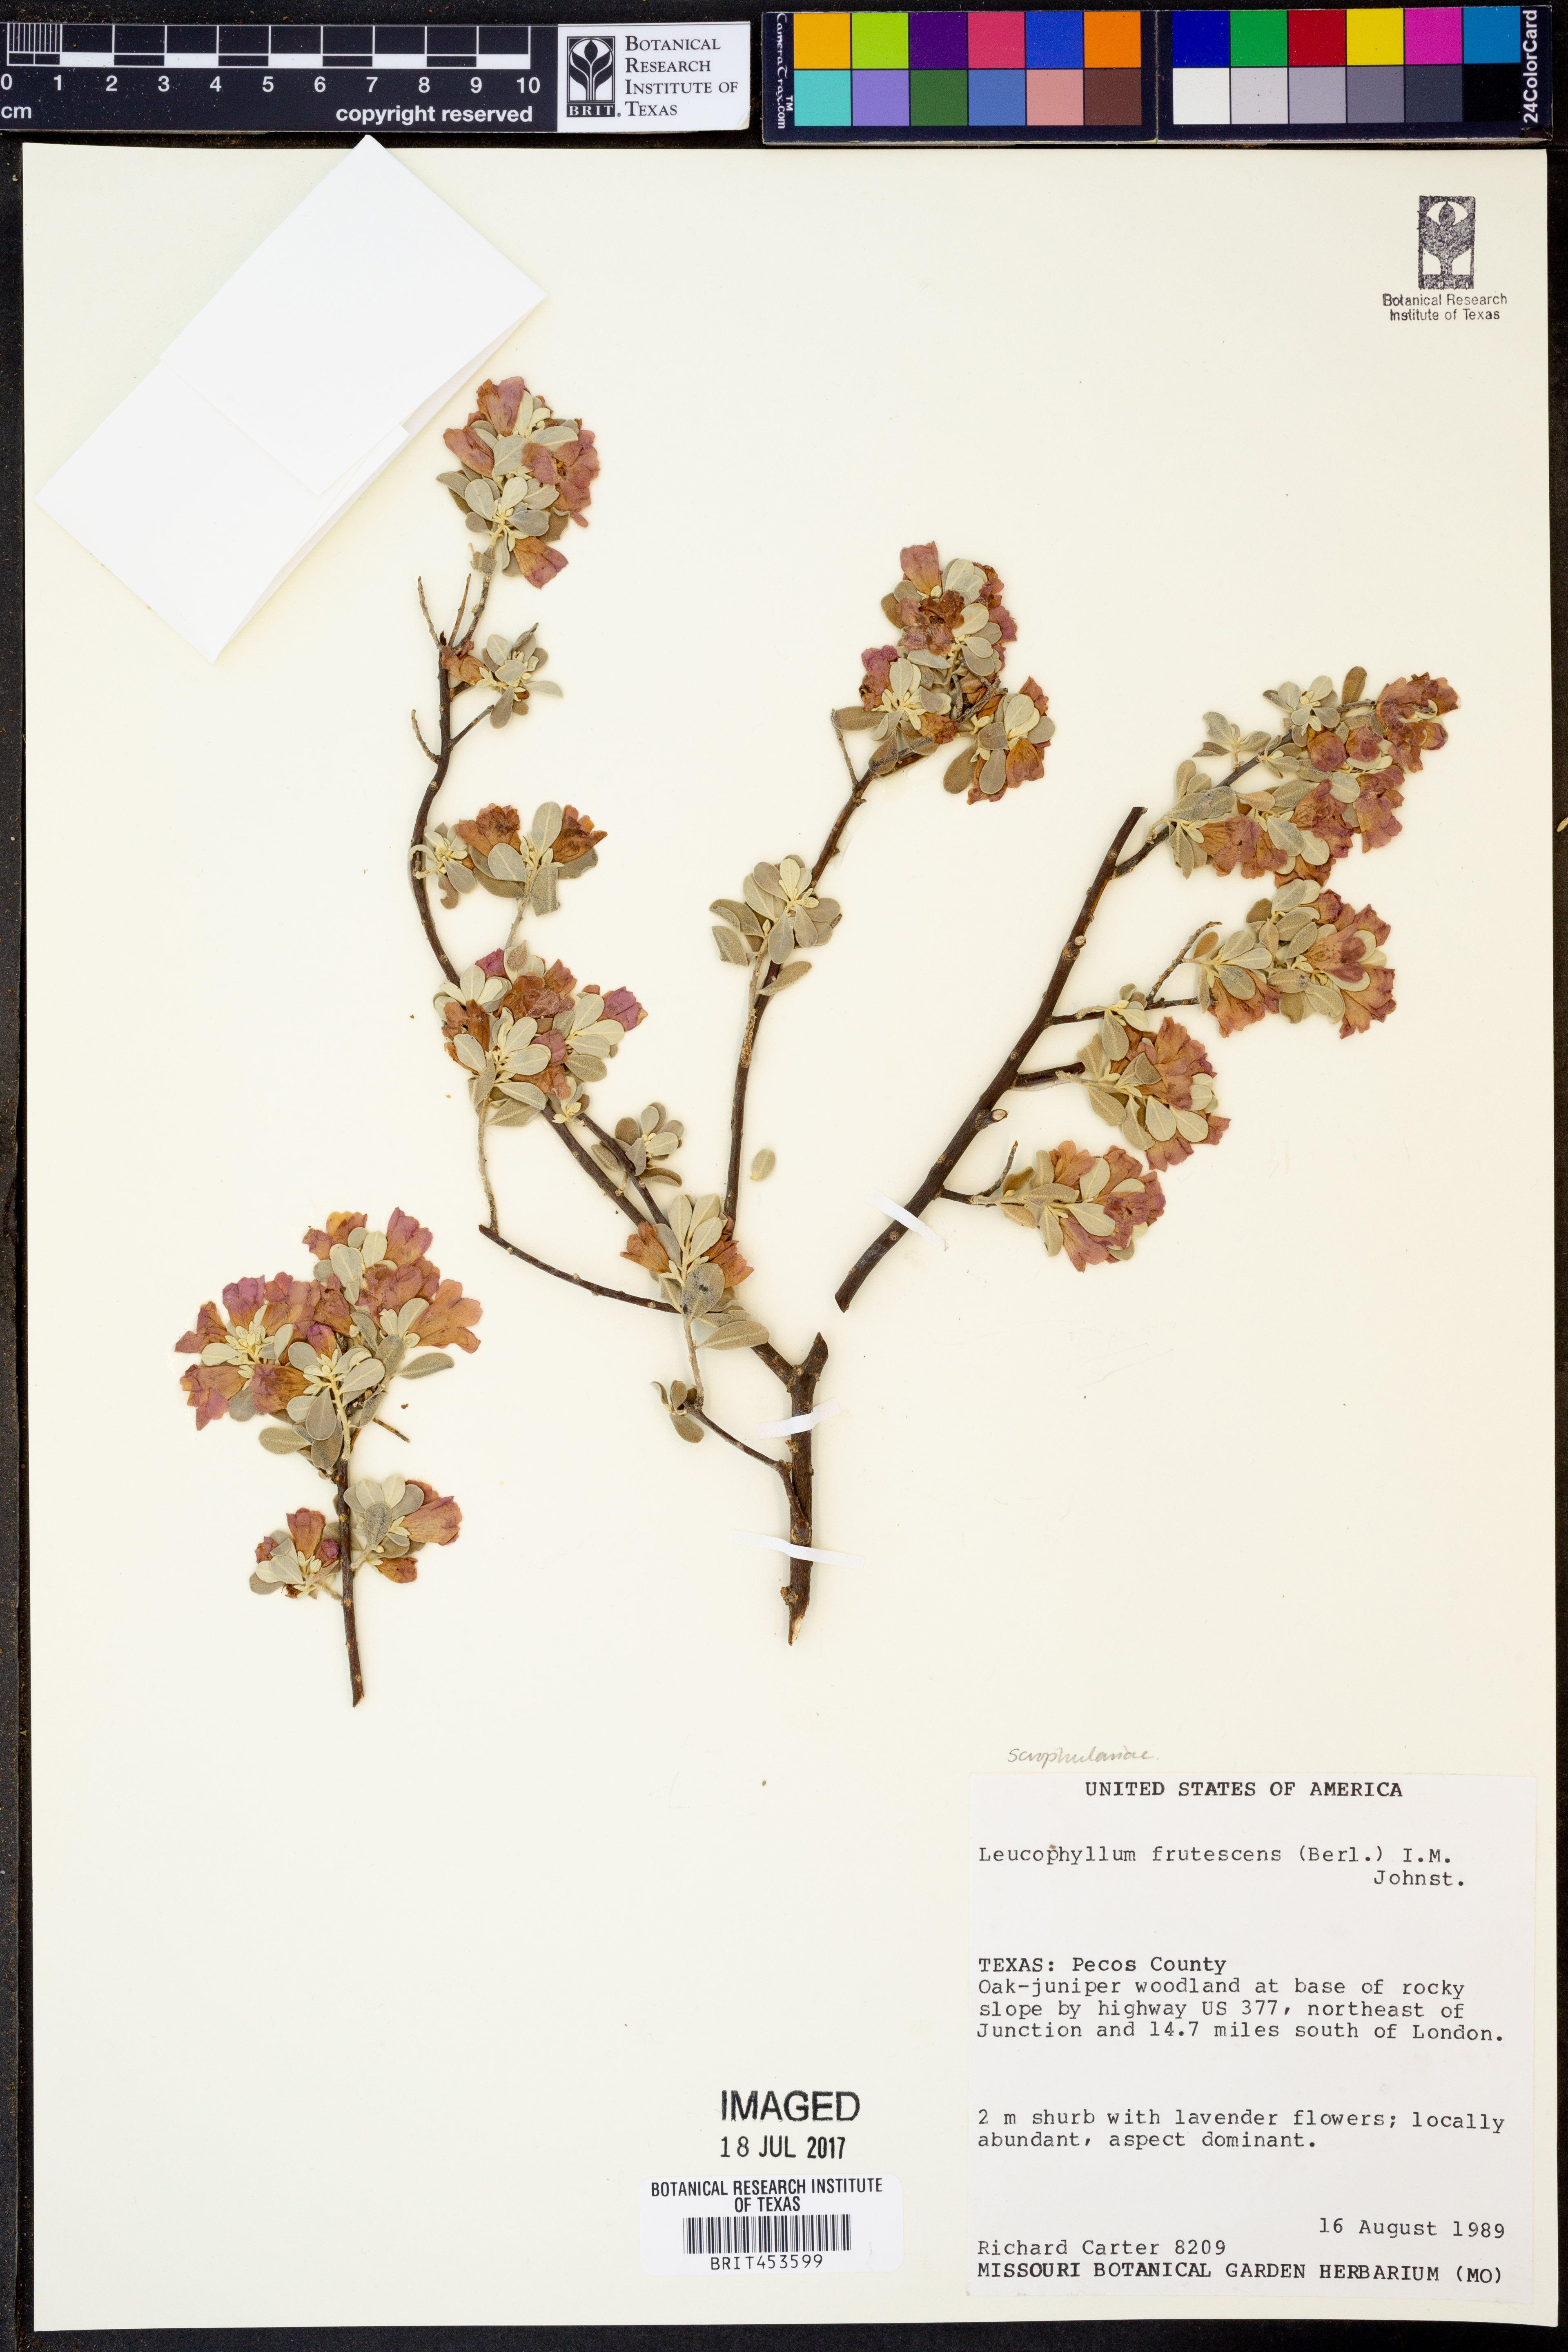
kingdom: Plantae
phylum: Tracheophyta
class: Magnoliopsida
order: Lamiales
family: Scrophulariaceae
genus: Leucophyllum
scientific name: Leucophyllum frutescens
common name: Texas silverleaf
